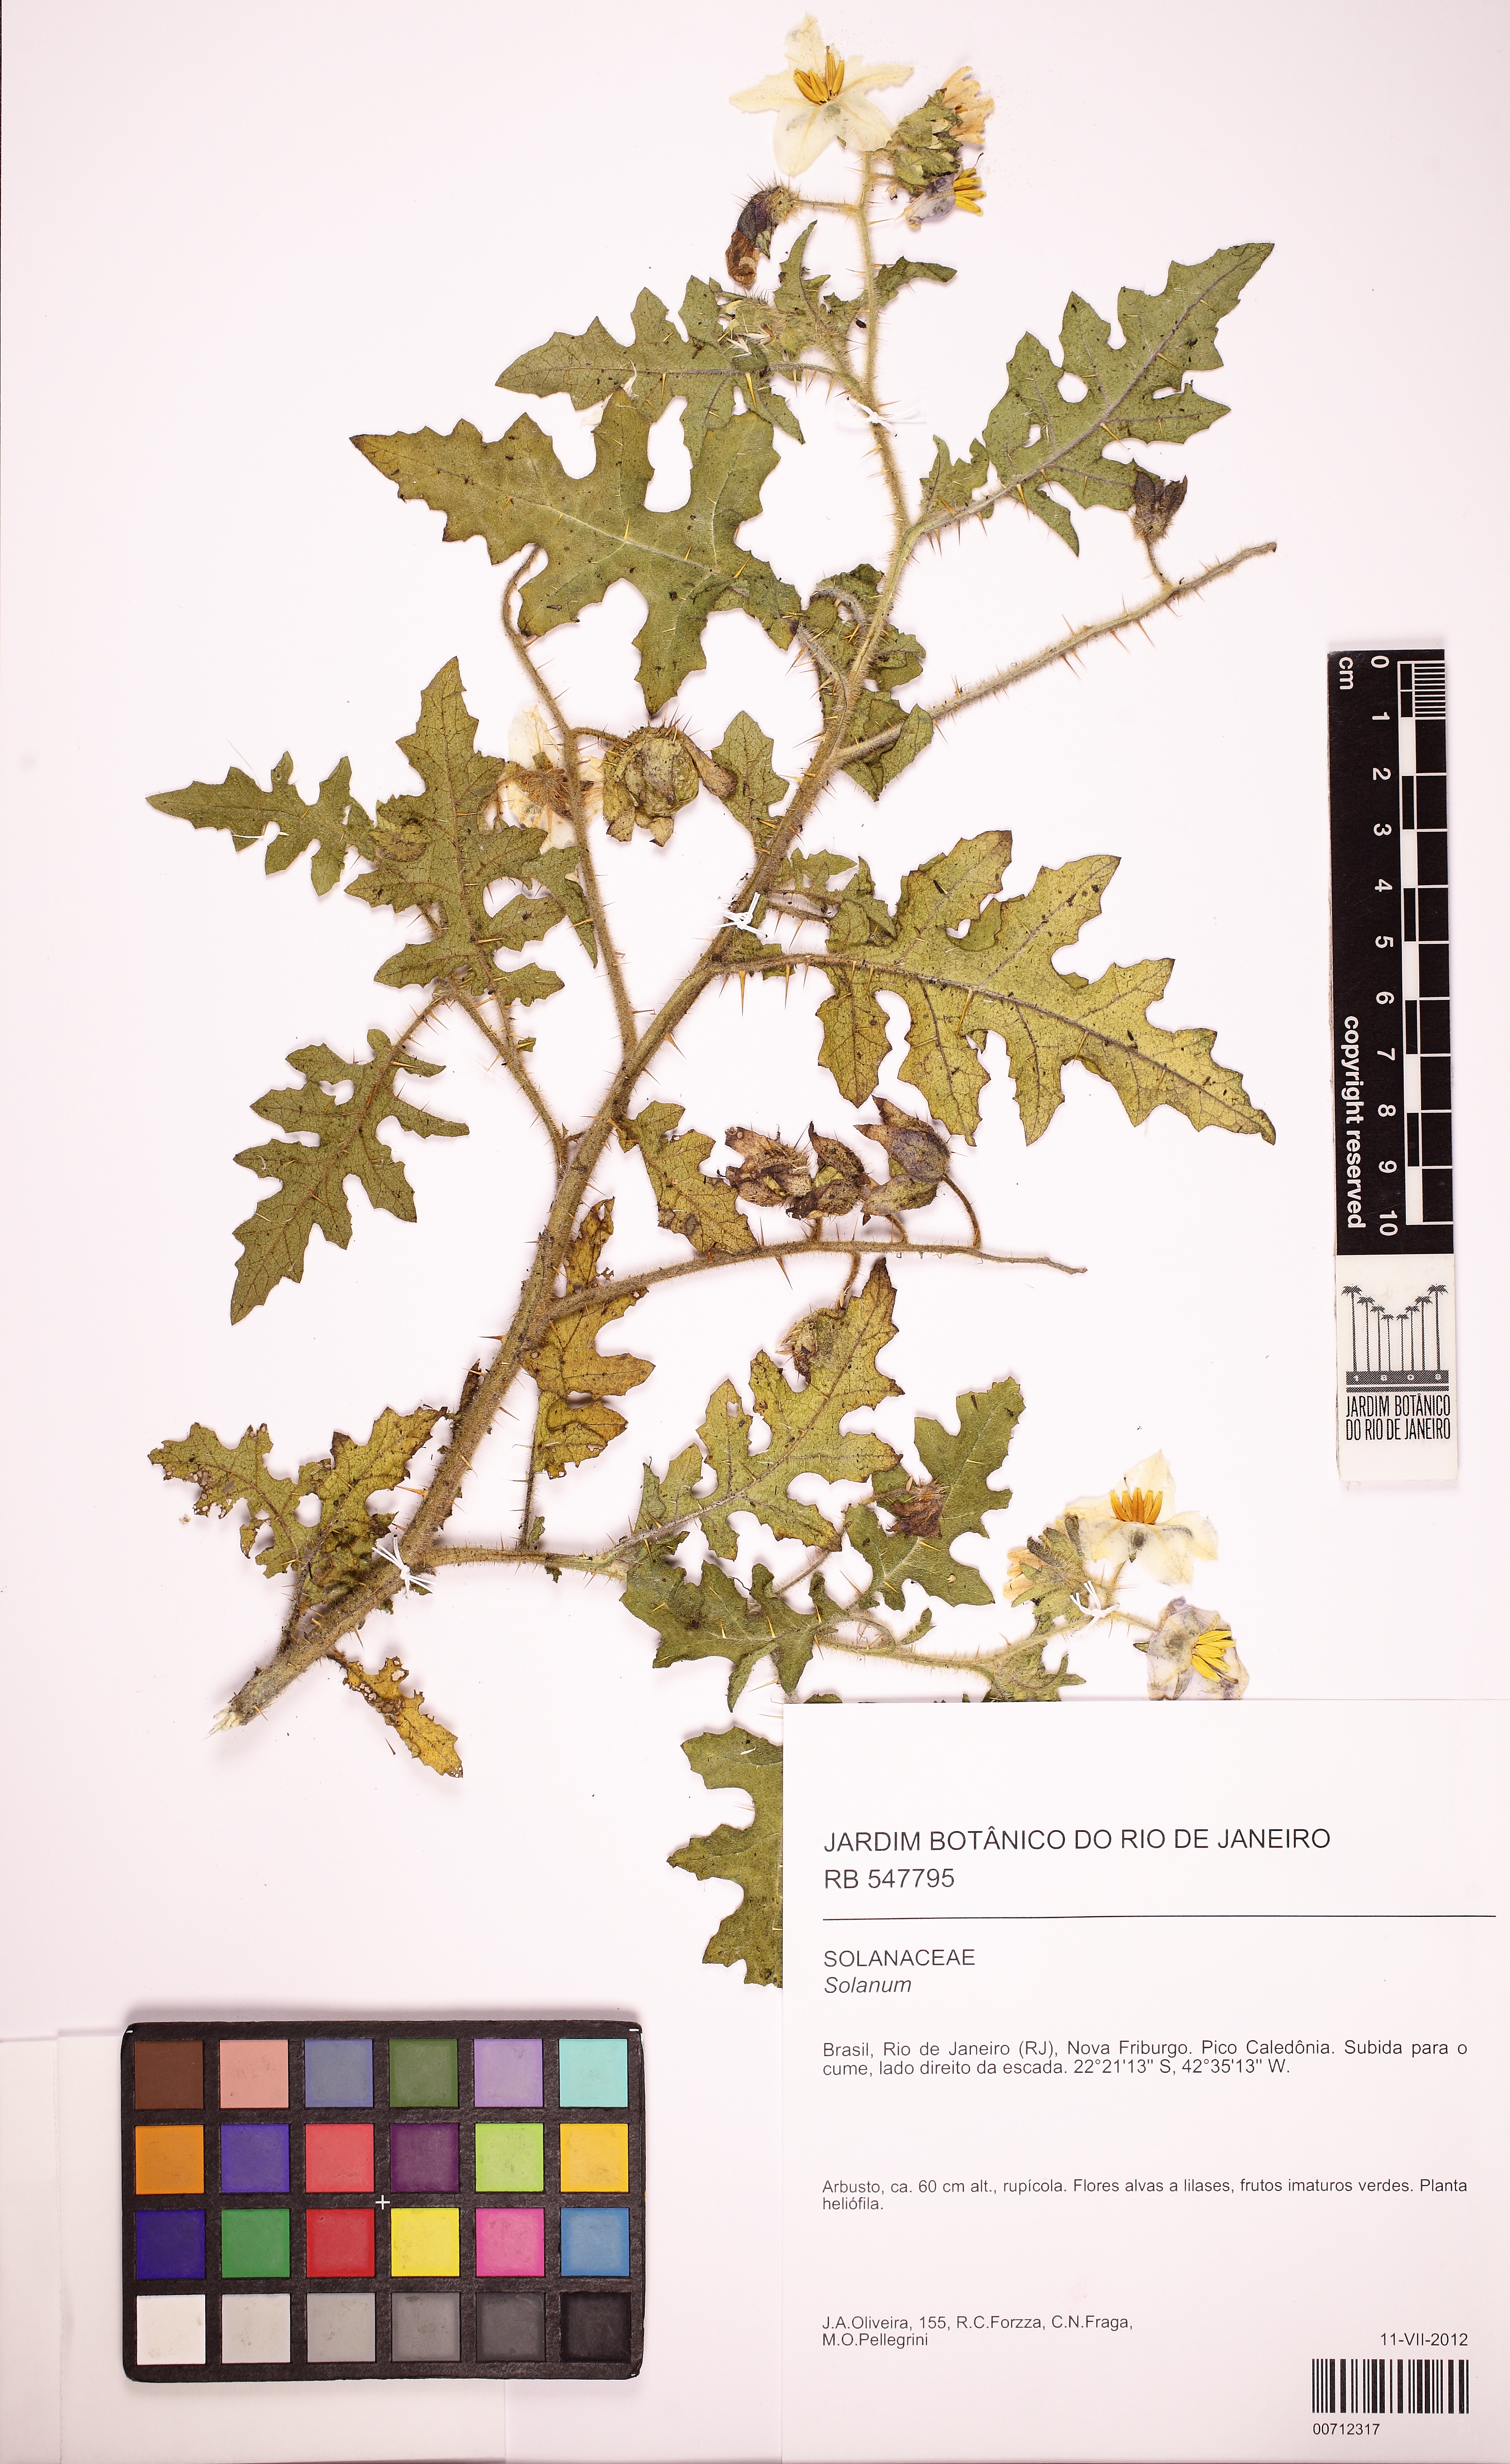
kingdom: Plantae
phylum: Tracheophyta
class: Magnoliopsida
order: Solanales
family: Solanaceae
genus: Solanum
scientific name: Solanum sisymbriifolium
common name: Red buffalo-bur
